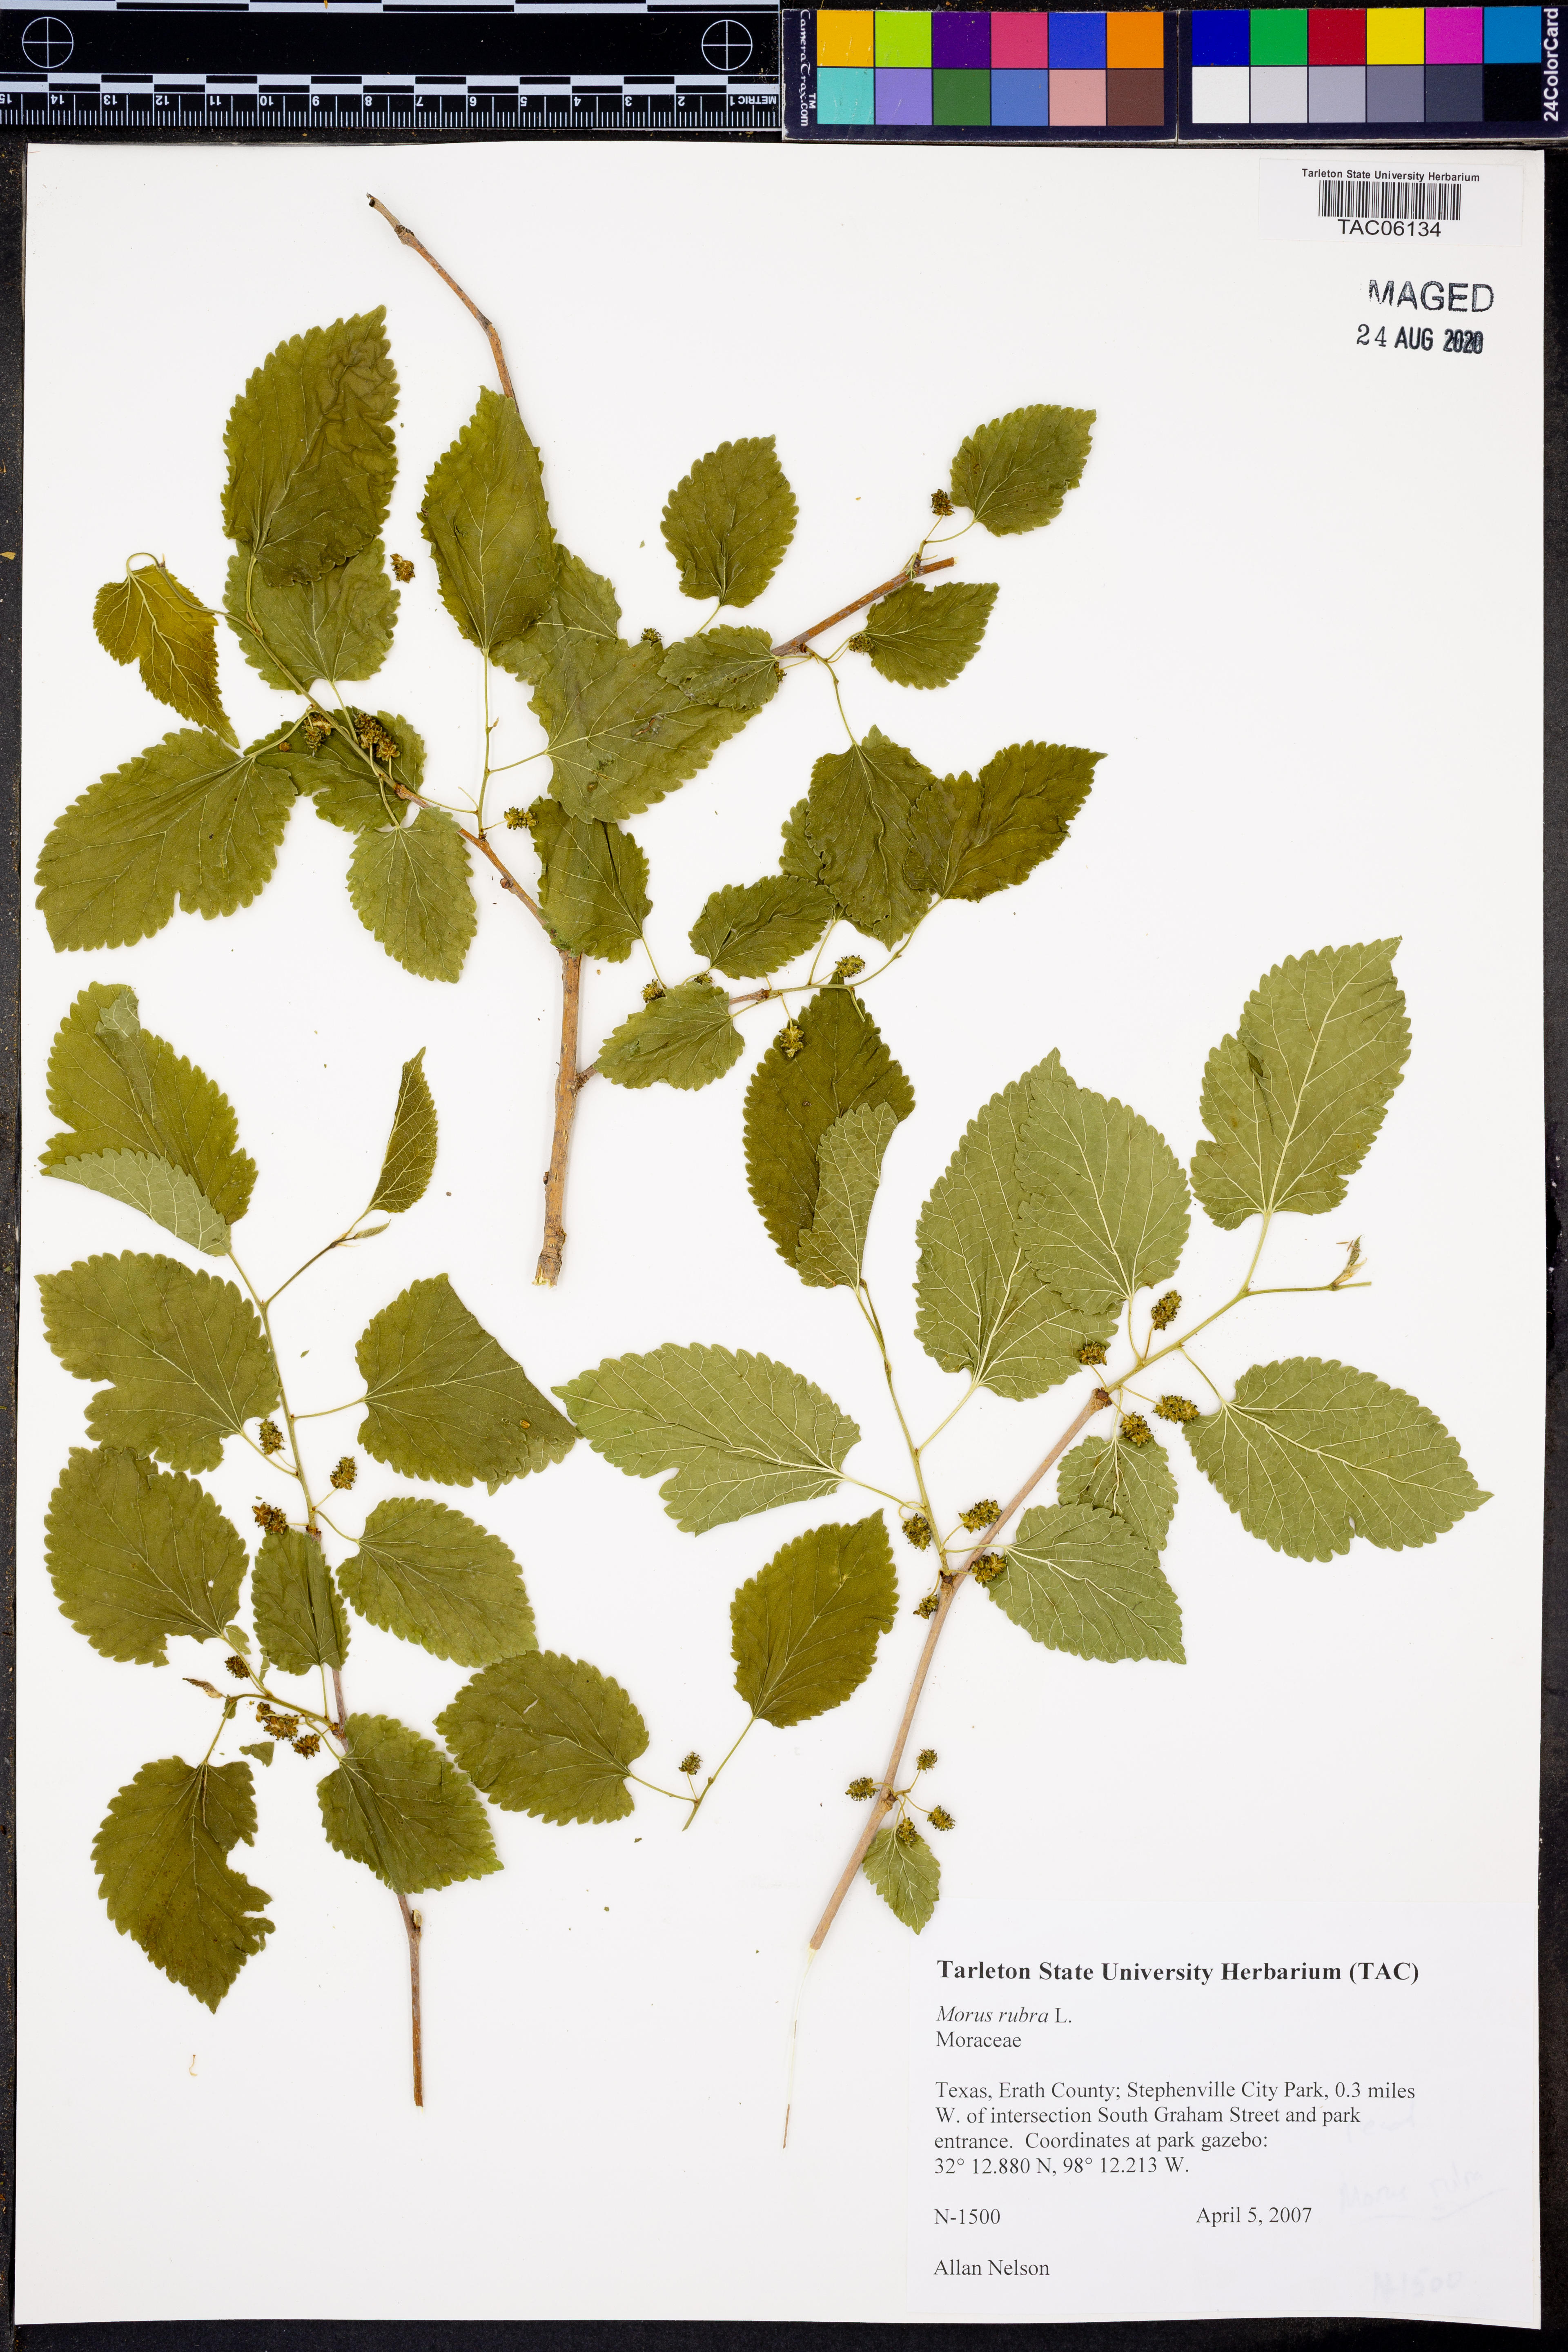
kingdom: Plantae
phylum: Tracheophyta
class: Magnoliopsida
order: Rosales
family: Moraceae
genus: Morus
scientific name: Morus rubra
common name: Red mulberry
